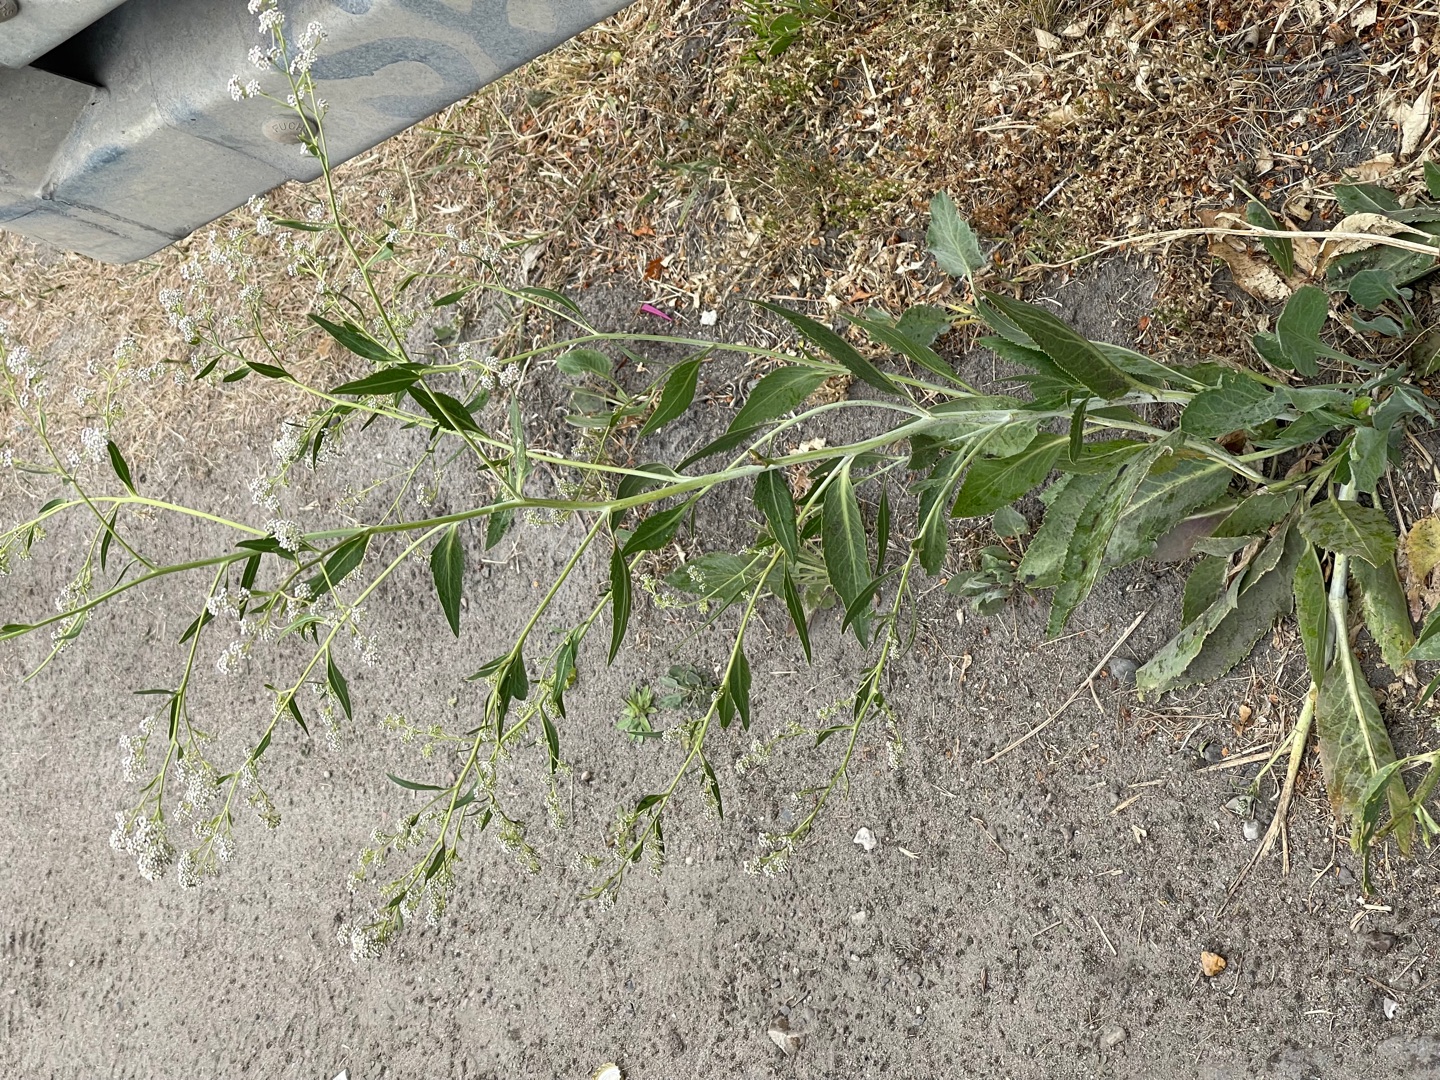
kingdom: Plantae
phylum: Tracheophyta
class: Magnoliopsida
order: Brassicales
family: Brassicaceae
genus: Lepidium
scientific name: Lepidium latifolium
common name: Strand-karse
